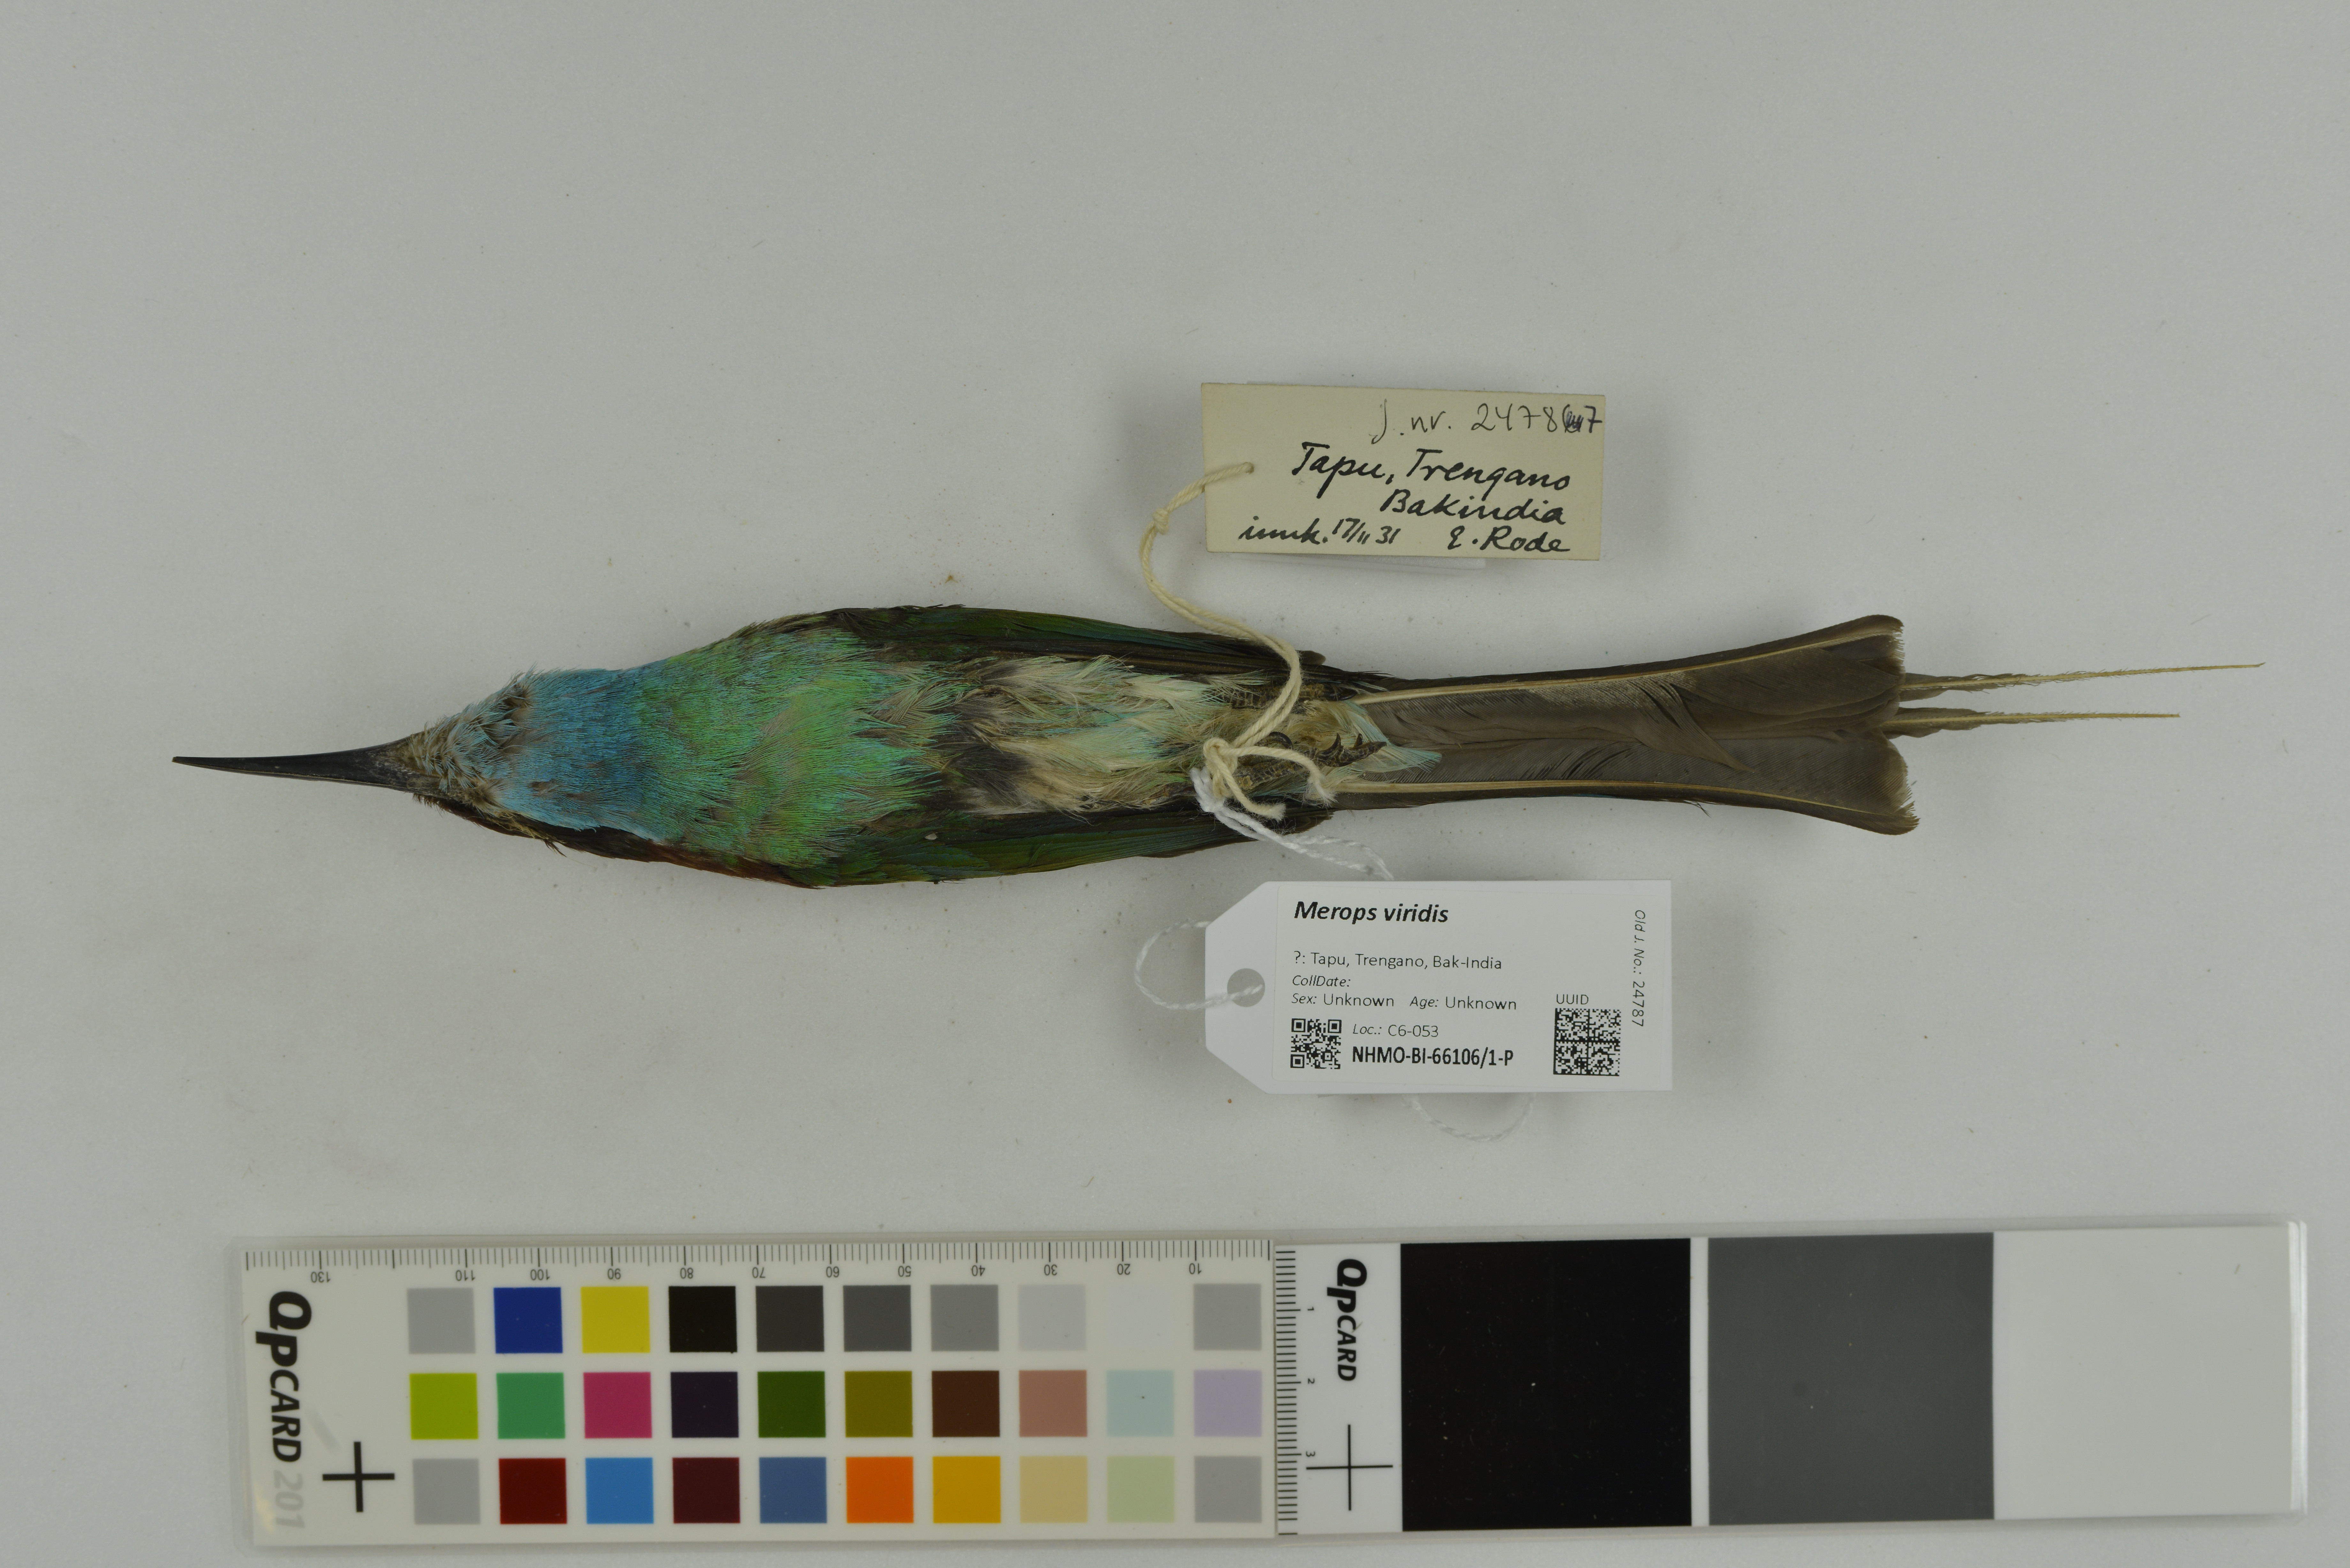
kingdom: Animalia
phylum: Chordata
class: Aves
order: Coraciiformes
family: Meropidae
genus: Merops
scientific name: Merops viridis
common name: Blue-throated bee-eater
